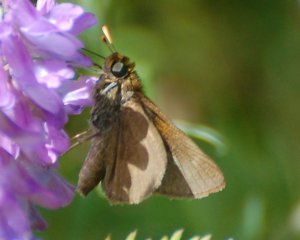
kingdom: Animalia
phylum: Arthropoda
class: Insecta
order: Lepidoptera
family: Hesperiidae
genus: Polites
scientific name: Polites themistocles
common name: Tawny-edged Skipper
